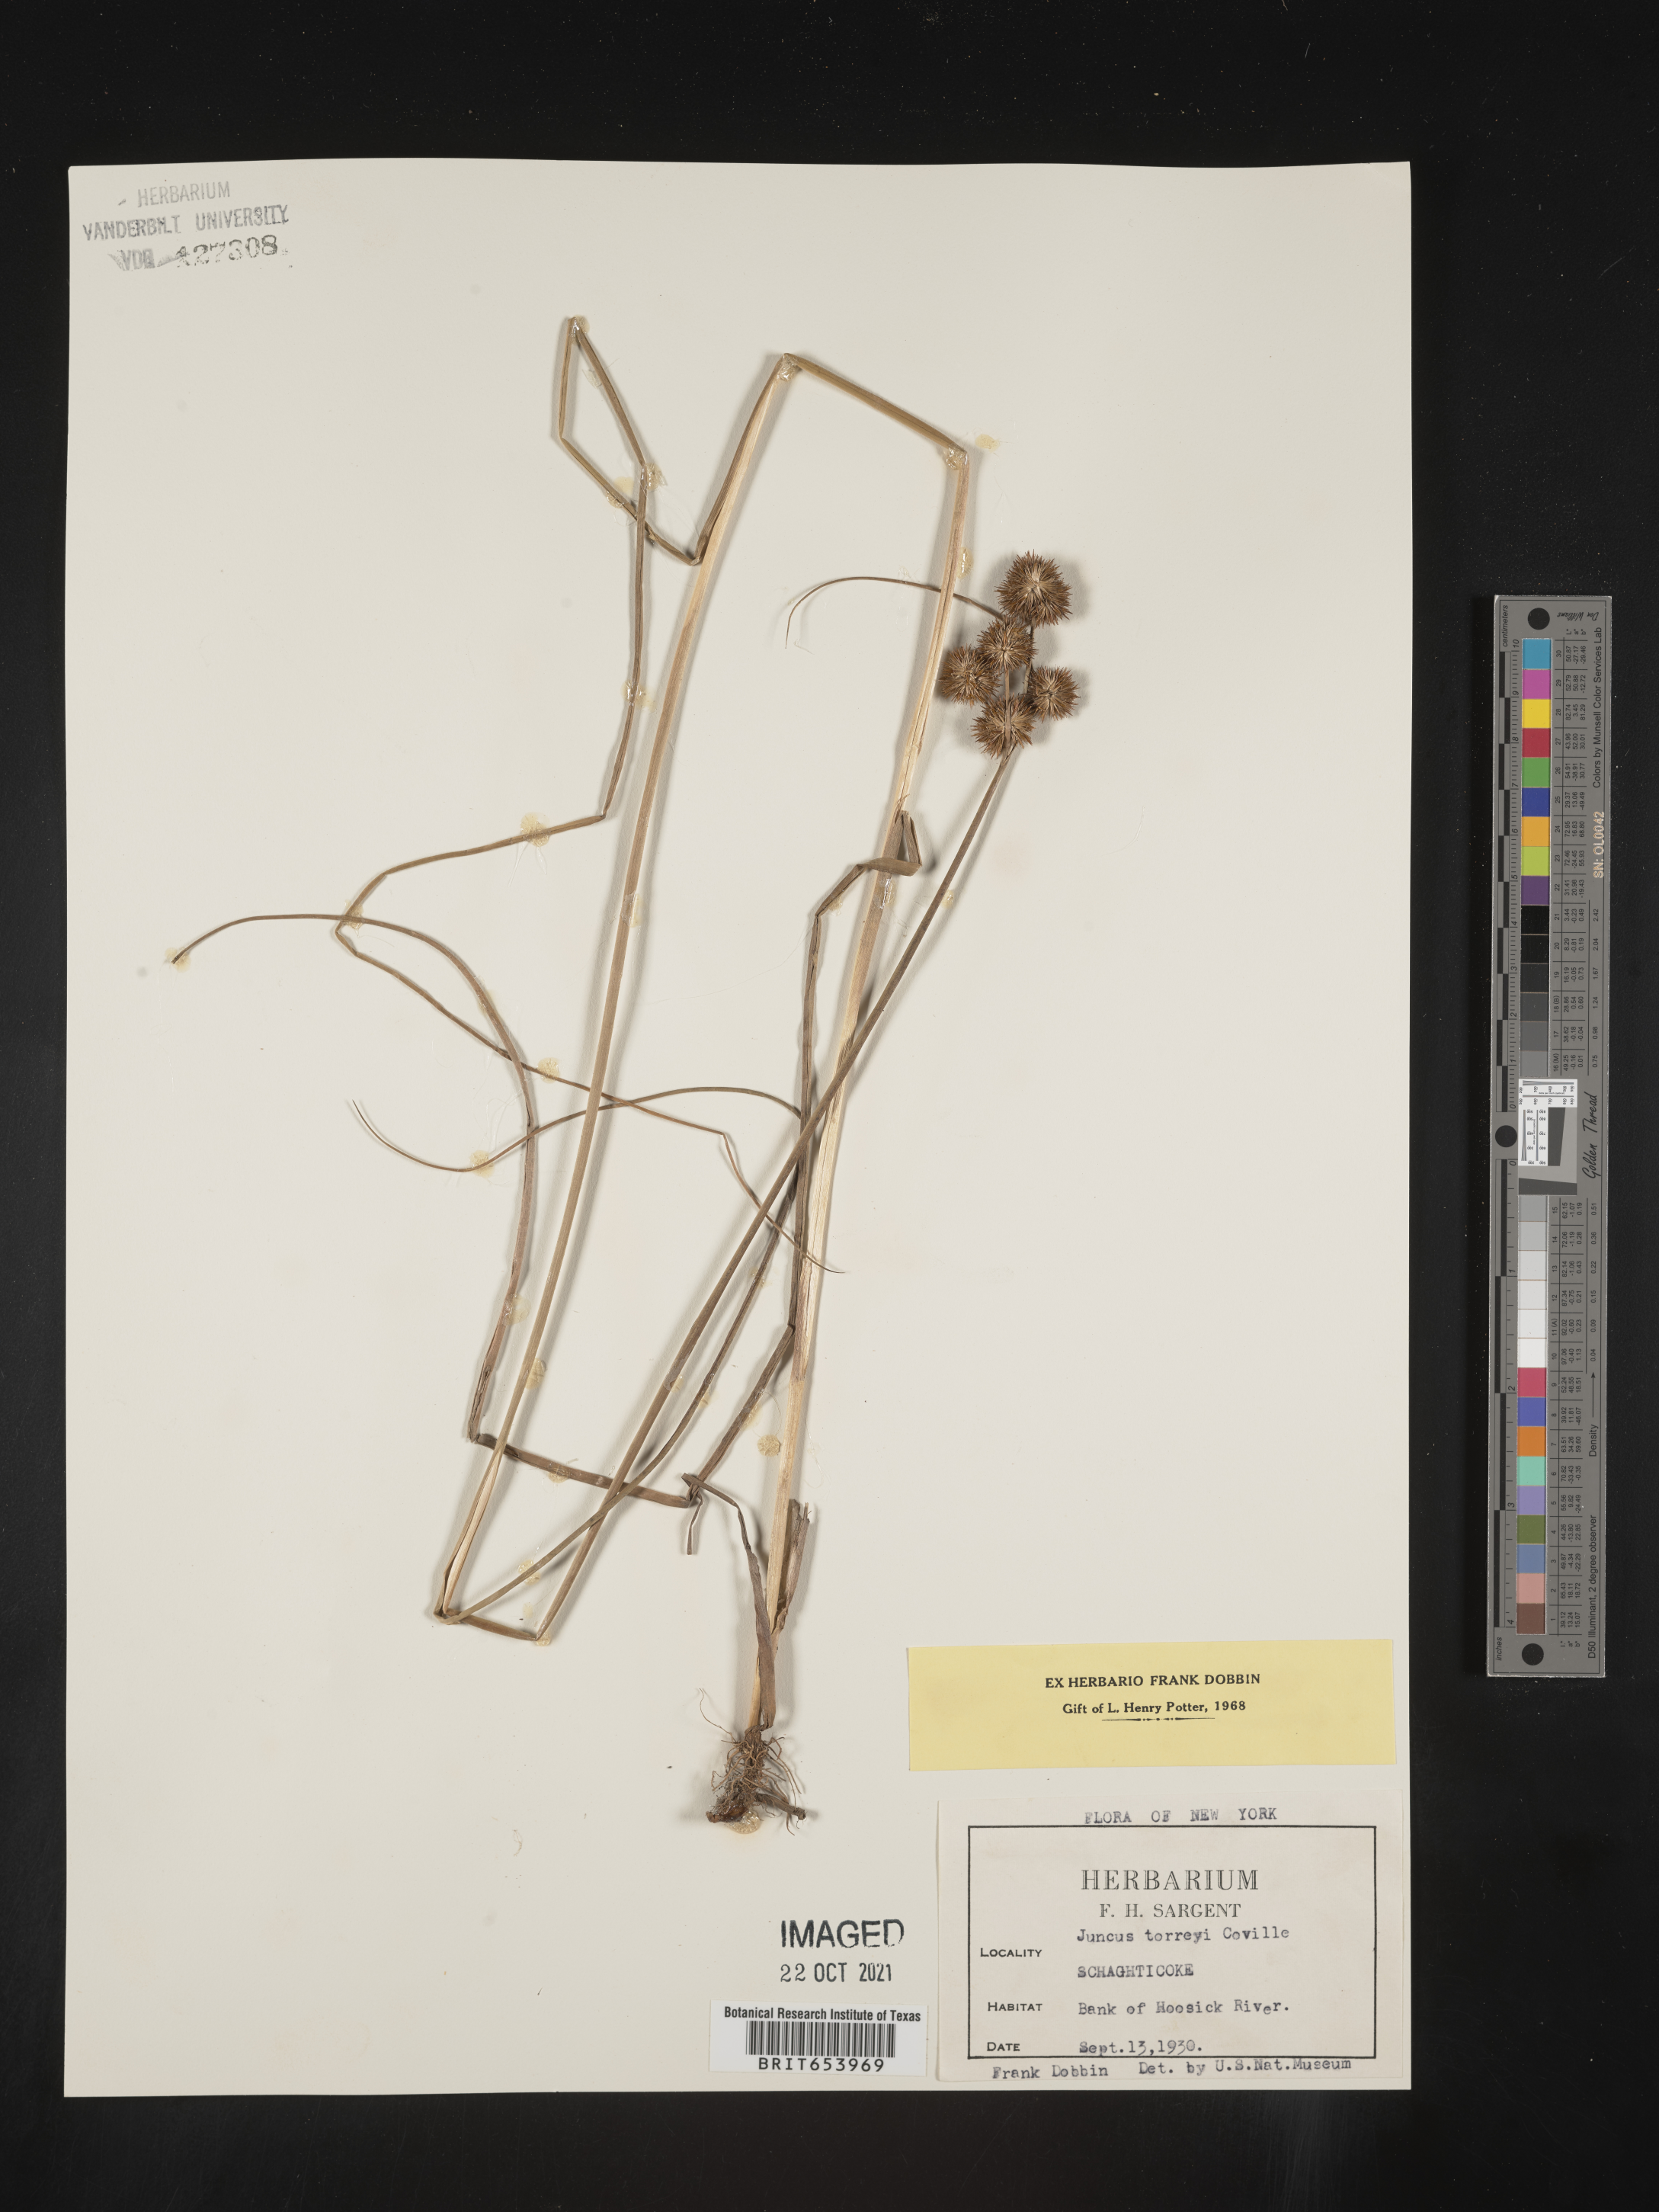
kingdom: Plantae
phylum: Tracheophyta
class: Liliopsida
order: Poales
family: Juncaceae
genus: Juncus
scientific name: Juncus torreyi
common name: Torrey's rush
